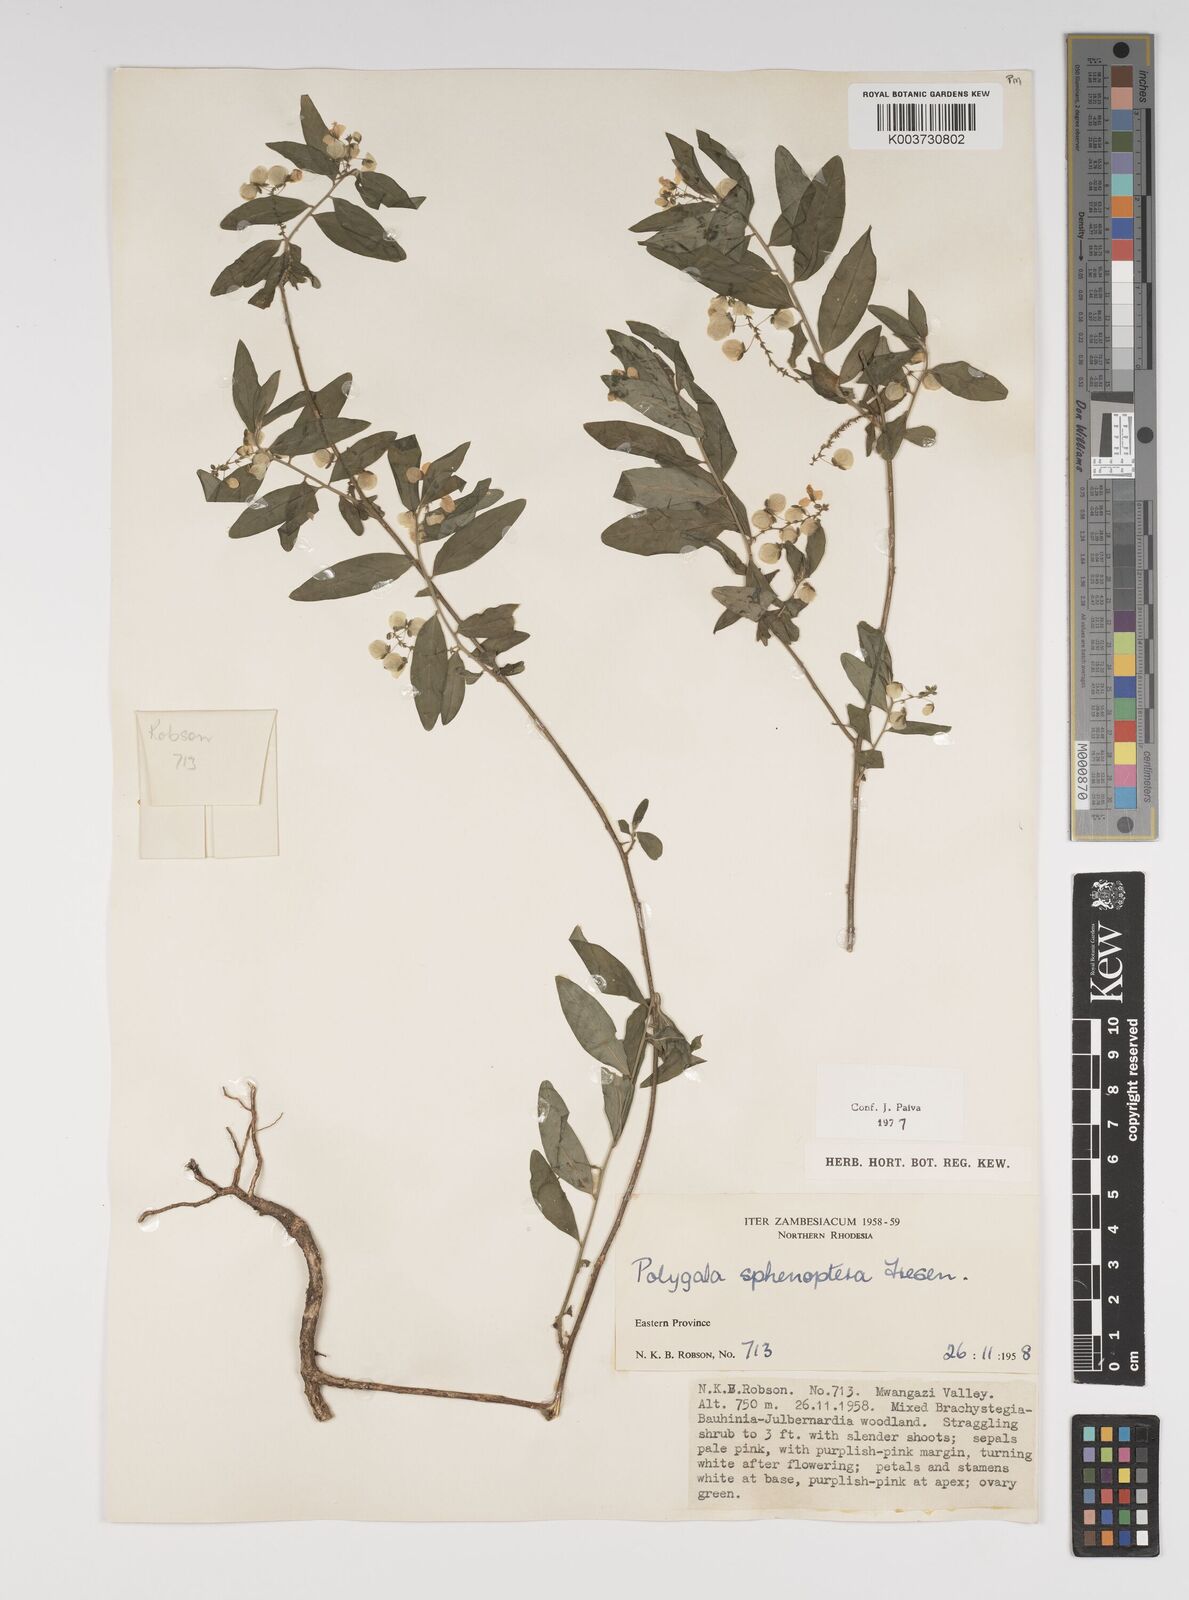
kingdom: Plantae
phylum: Tracheophyta
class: Magnoliopsida
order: Fabales
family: Polygalaceae
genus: Polygala
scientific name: Polygala sphenoptera
